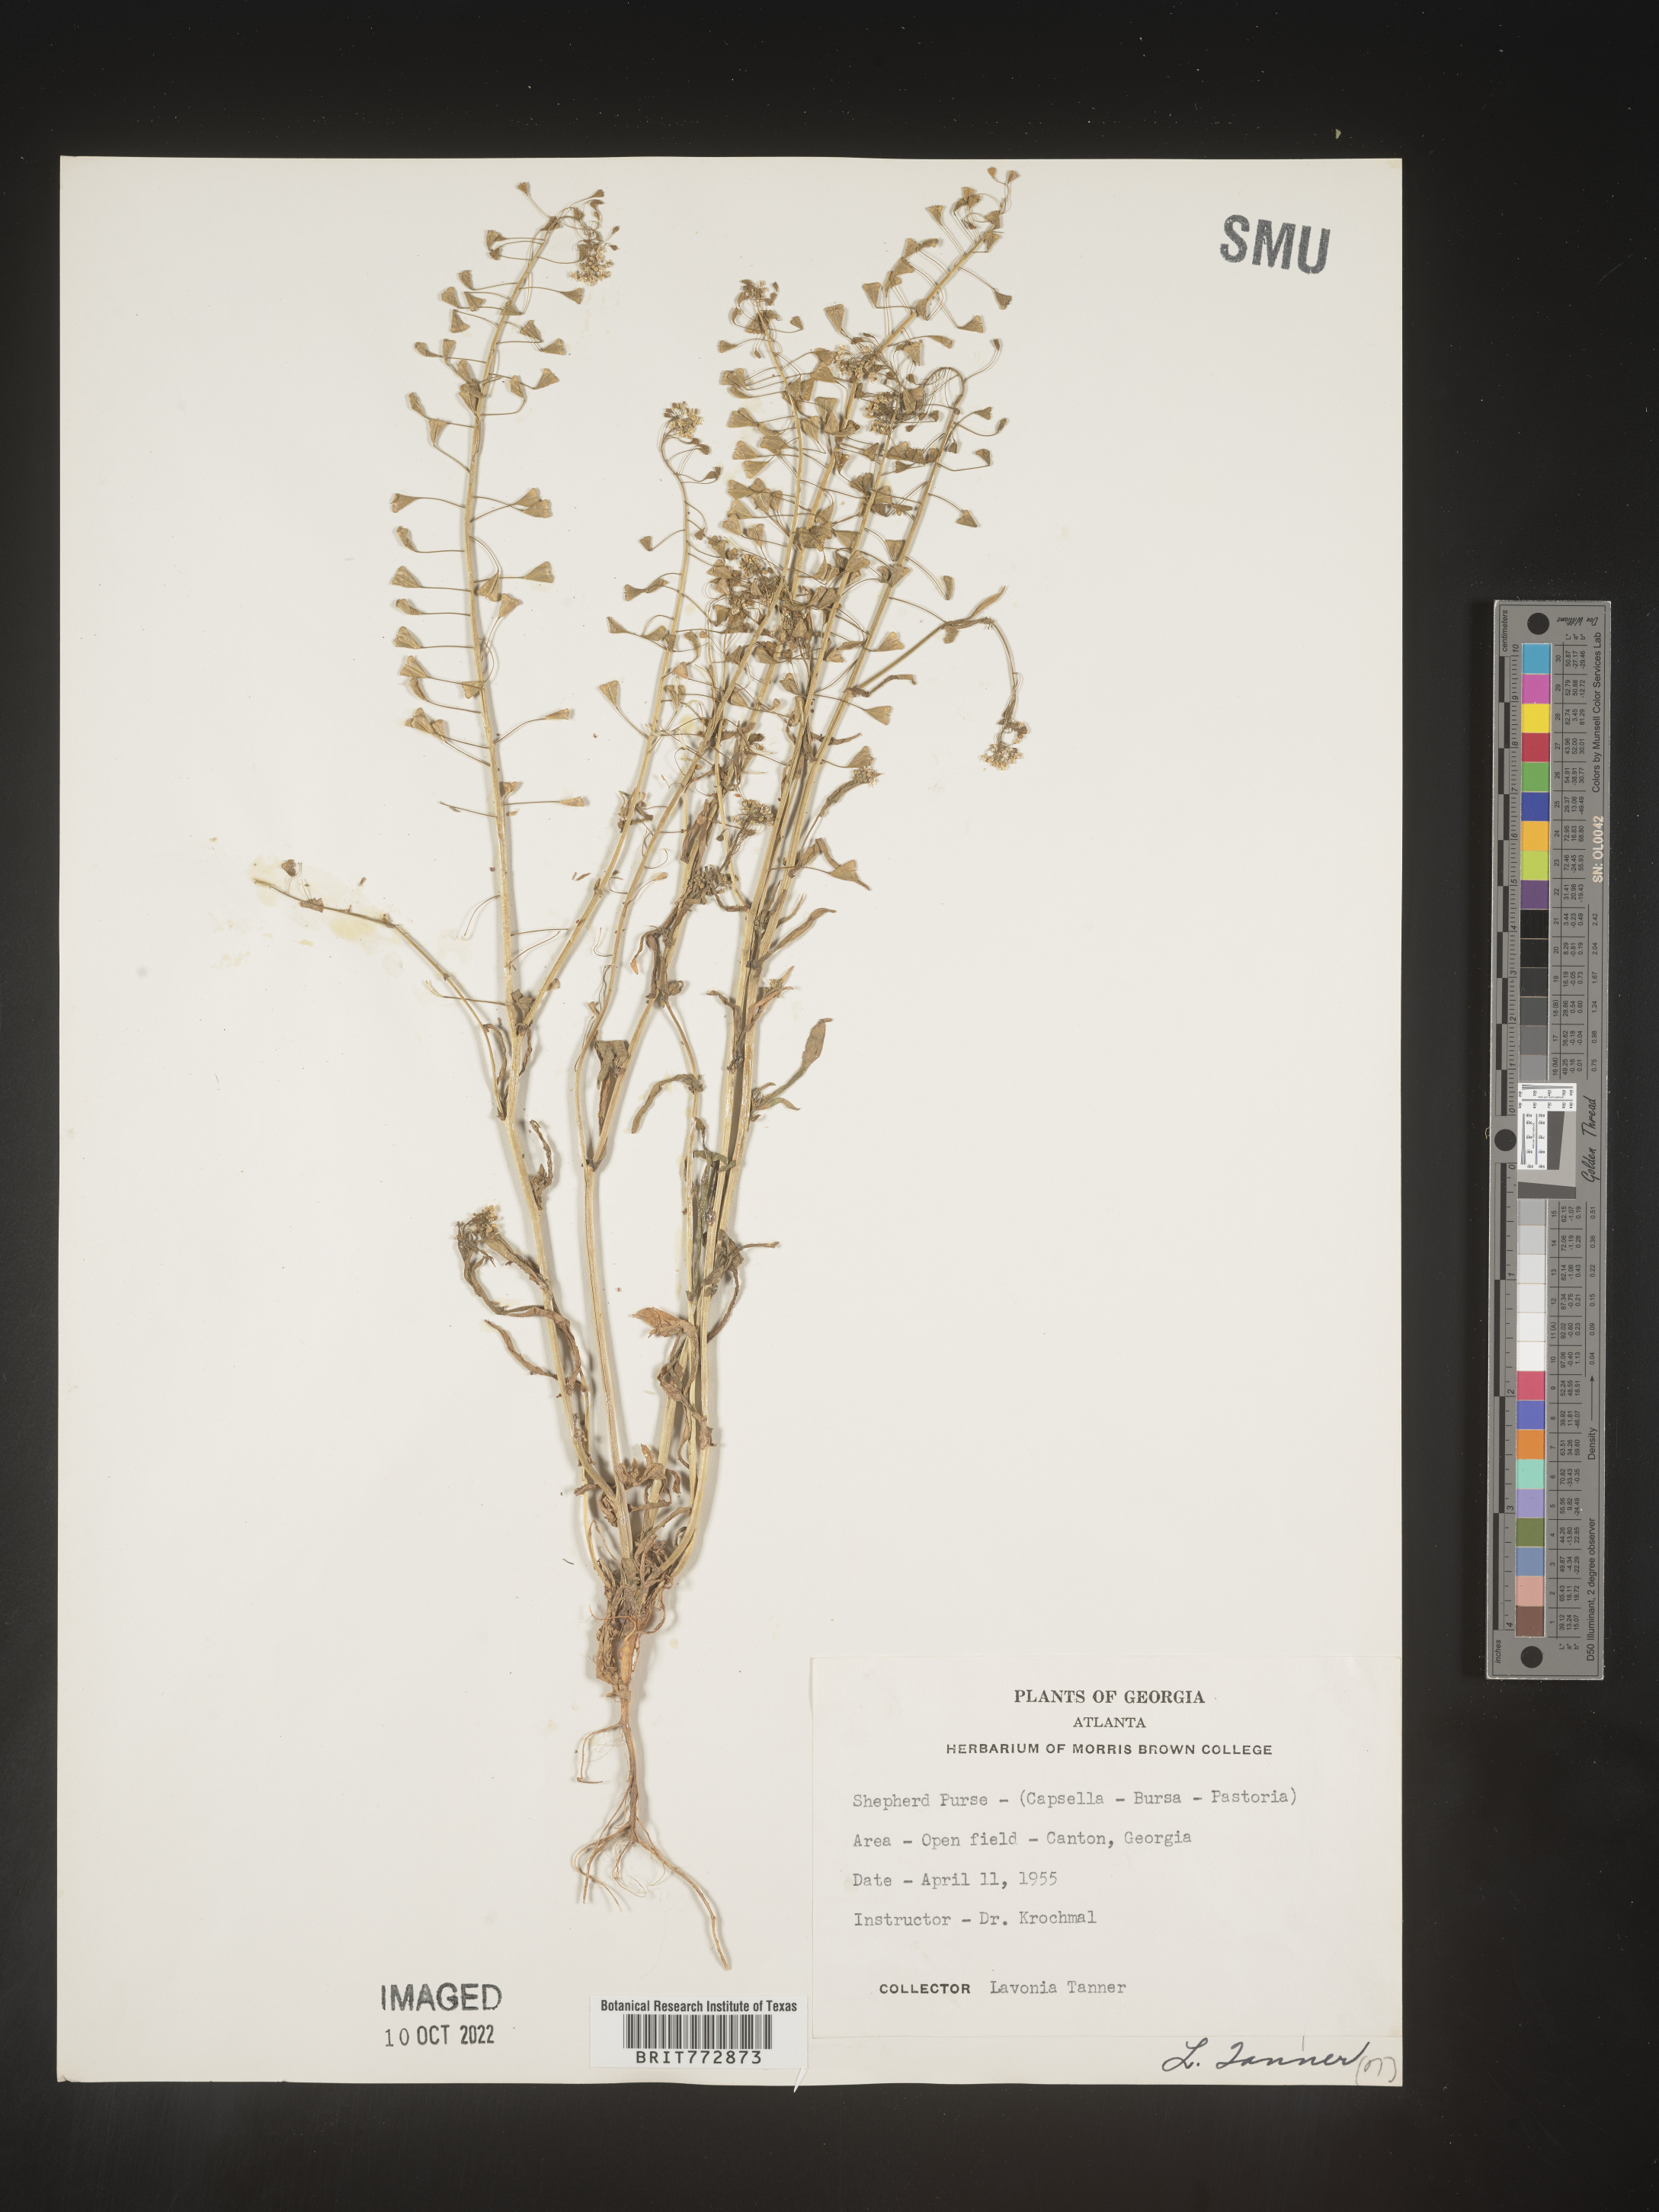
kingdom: Plantae
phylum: Tracheophyta
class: Magnoliopsida
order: Brassicales
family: Brassicaceae
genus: Capsella
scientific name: Capsella bursa-pastoris
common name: Shepherd's purse
